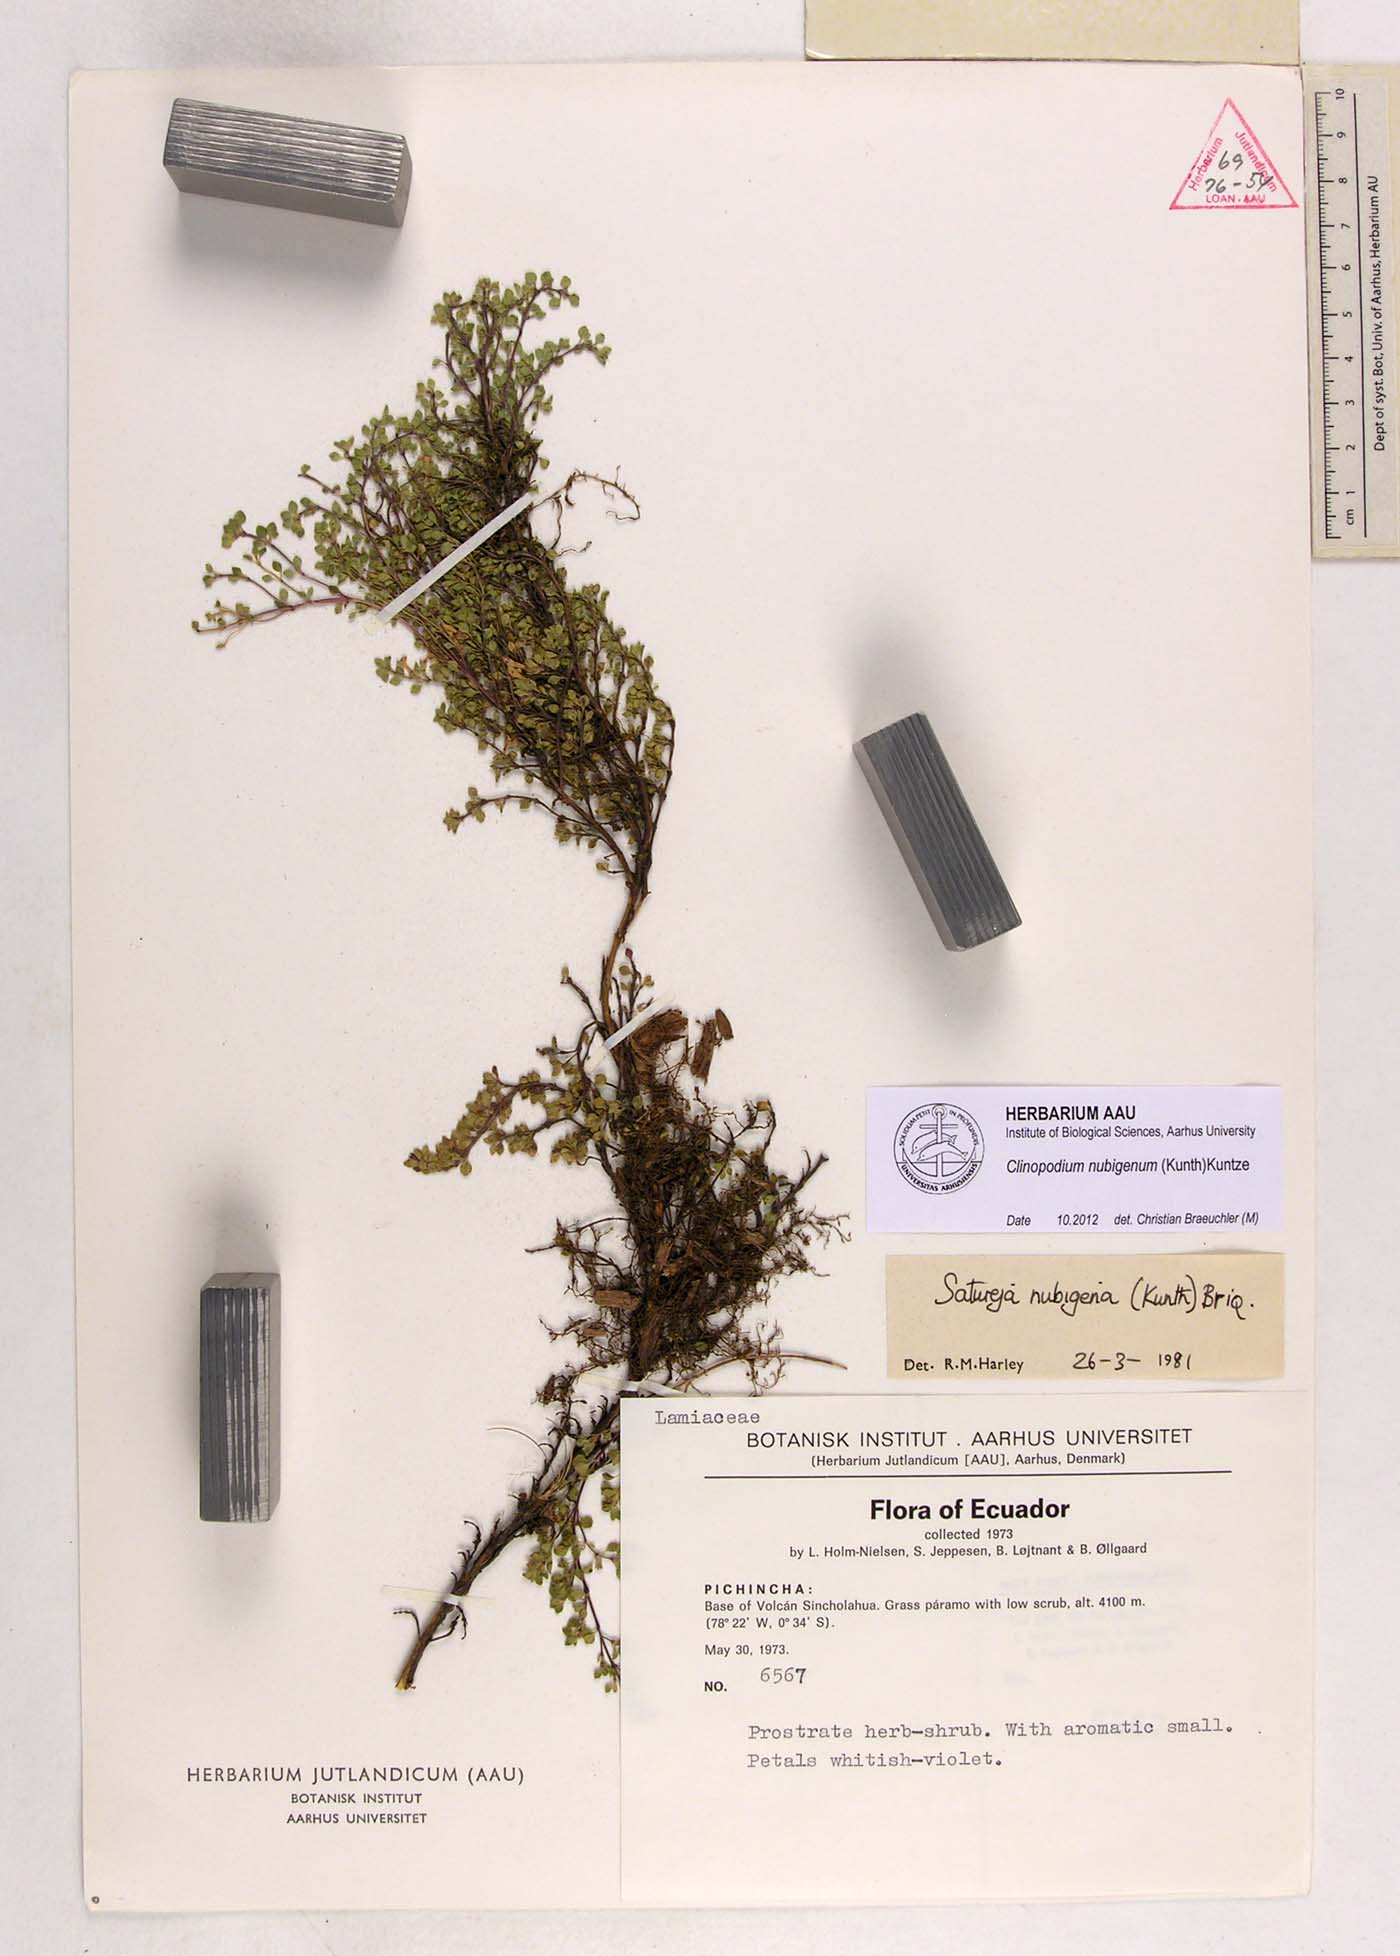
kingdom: Plantae
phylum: Tracheophyta
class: Magnoliopsida
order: Lamiales
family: Lamiaceae
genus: Clinopodium
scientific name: Clinopodium nubigenum
